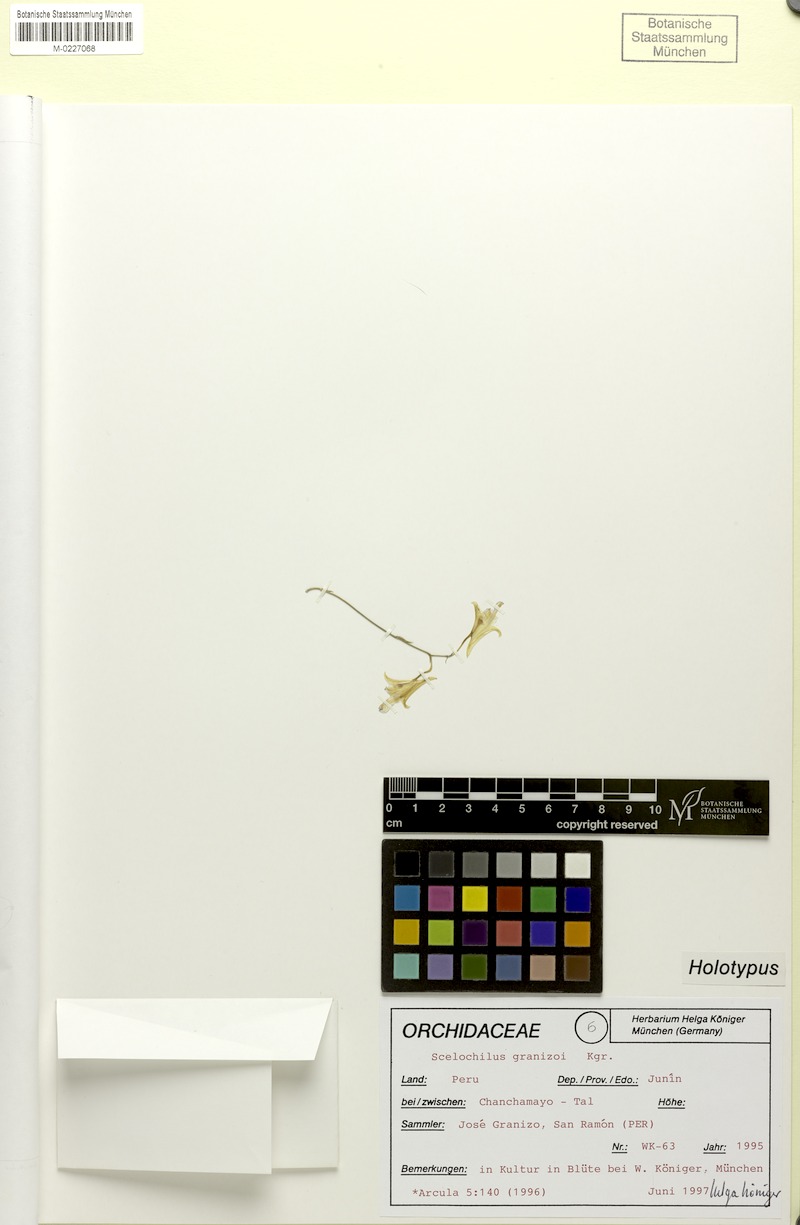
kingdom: Plantae
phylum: Tracheophyta
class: Liliopsida
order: Asparagales
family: Orchidaceae
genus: Comparettia
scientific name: Comparettia granizoi
